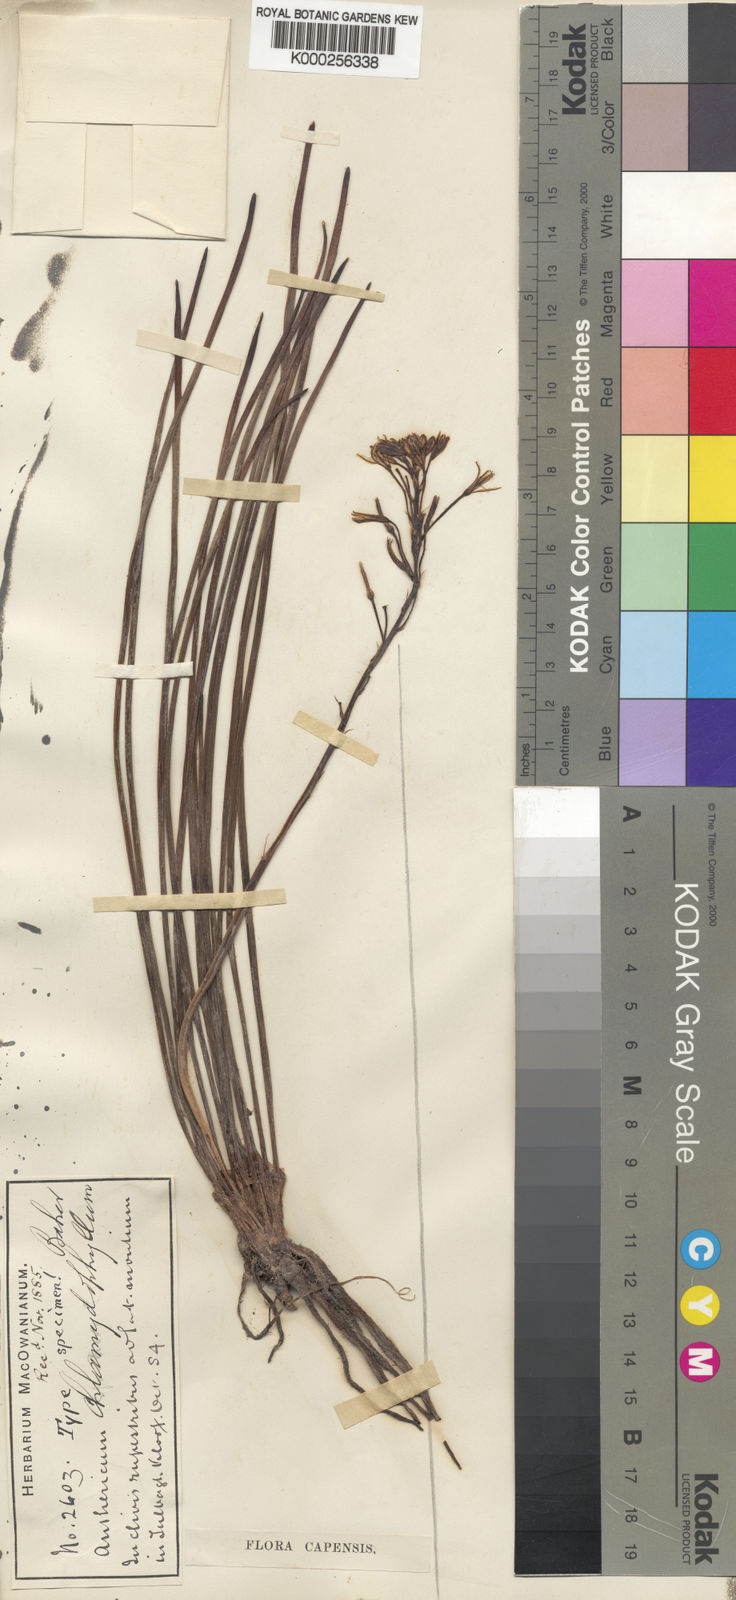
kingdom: Plantae
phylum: Tracheophyta
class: Liliopsida
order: Asparagales
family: Asphodelaceae
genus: Trachyandra
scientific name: Trachyandra chlamydophylla
